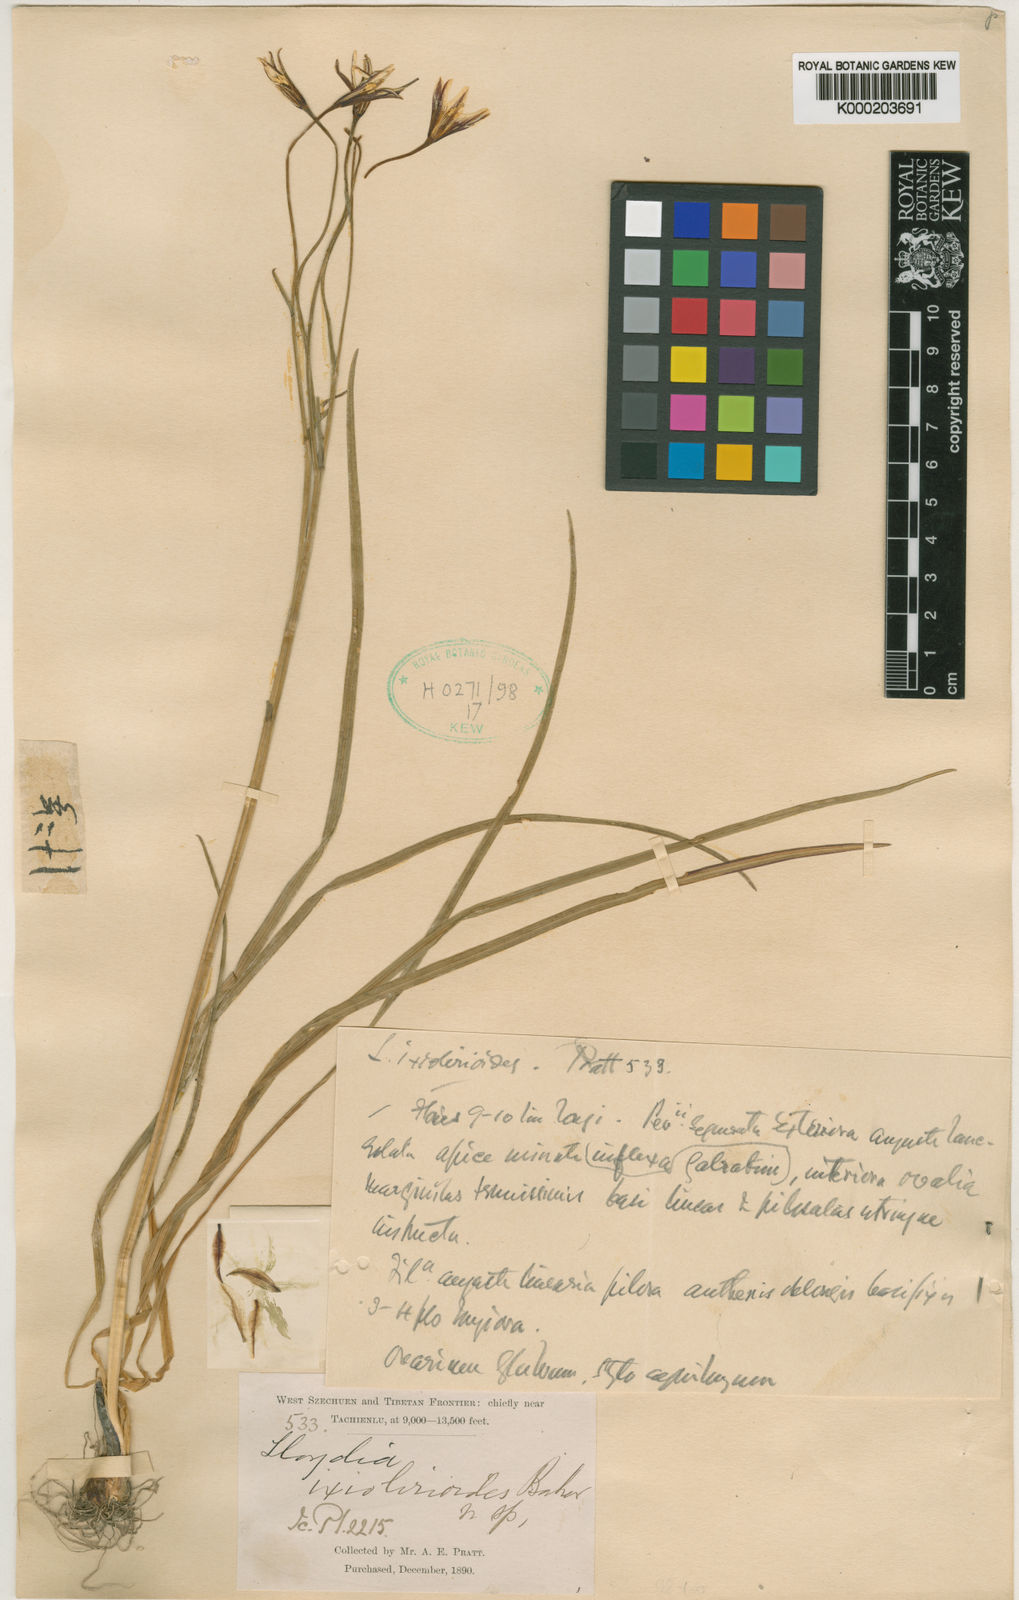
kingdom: Plantae
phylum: Tracheophyta
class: Liliopsida
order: Liliales
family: Liliaceae
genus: Gagea
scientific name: Gagea ixiolirioides
